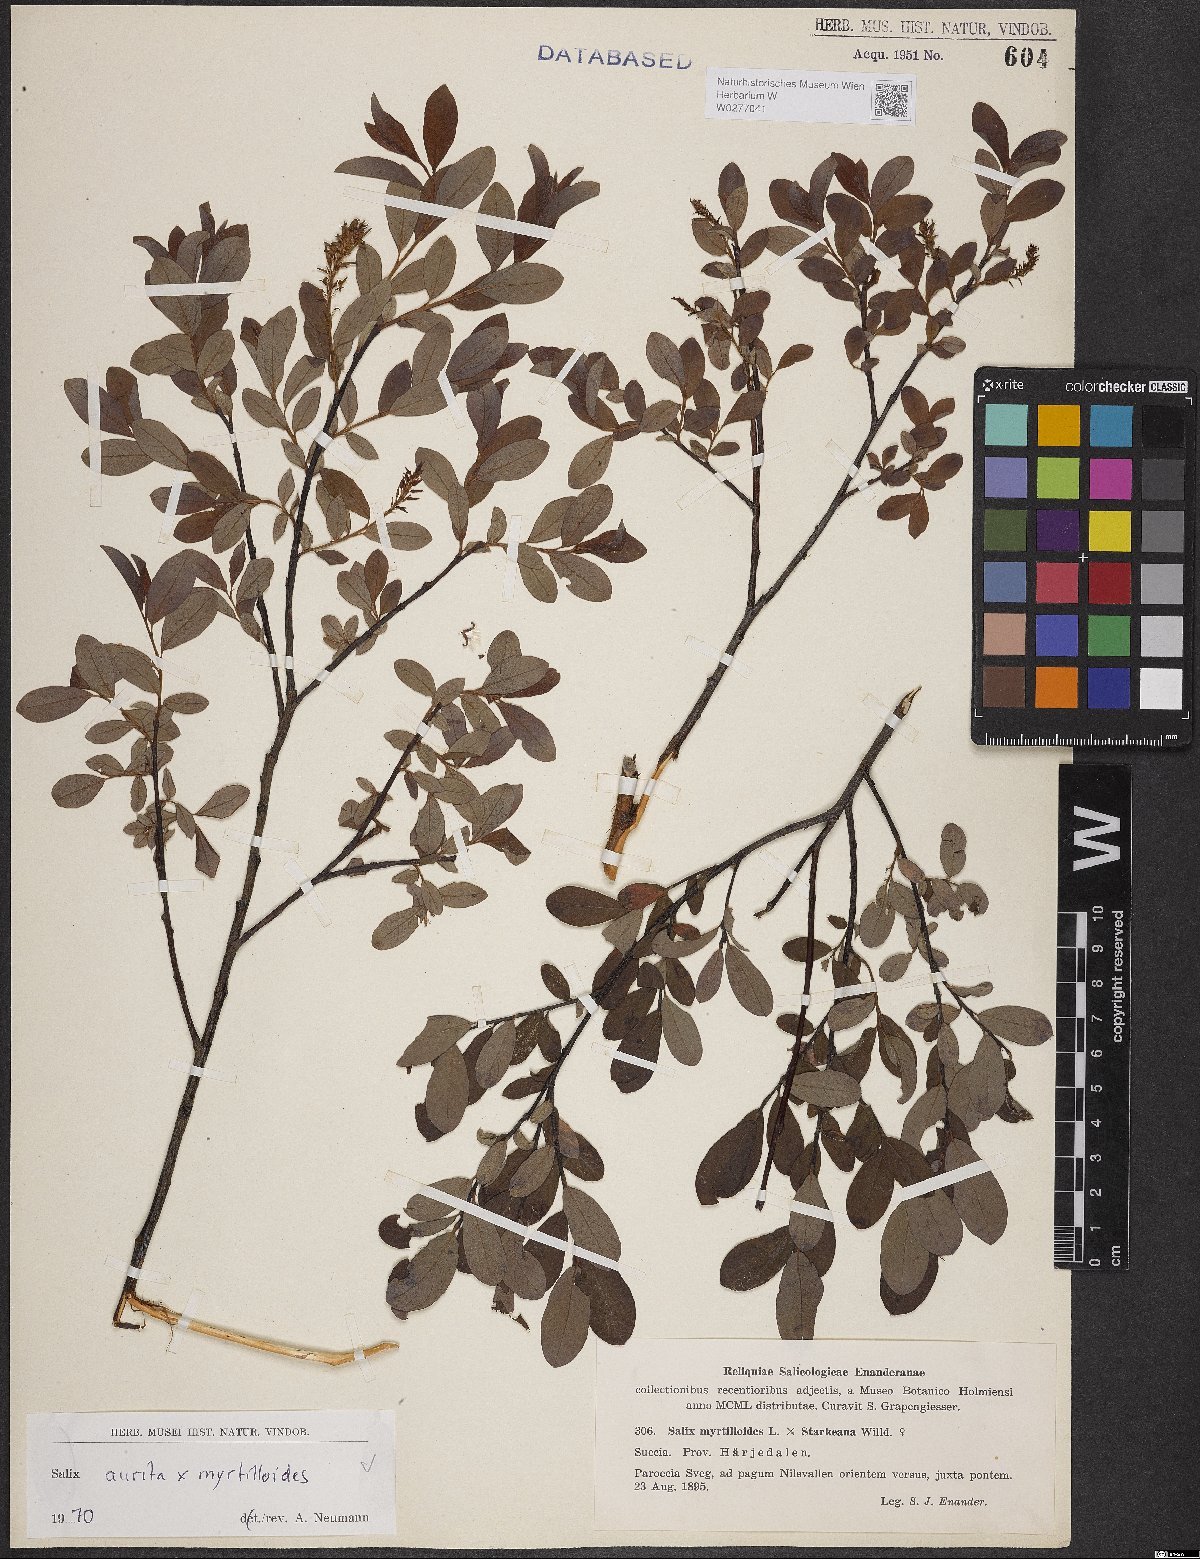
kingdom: Plantae
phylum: Tracheophyta
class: Magnoliopsida
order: Malpighiales
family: Salicaceae
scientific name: Salicaceae
